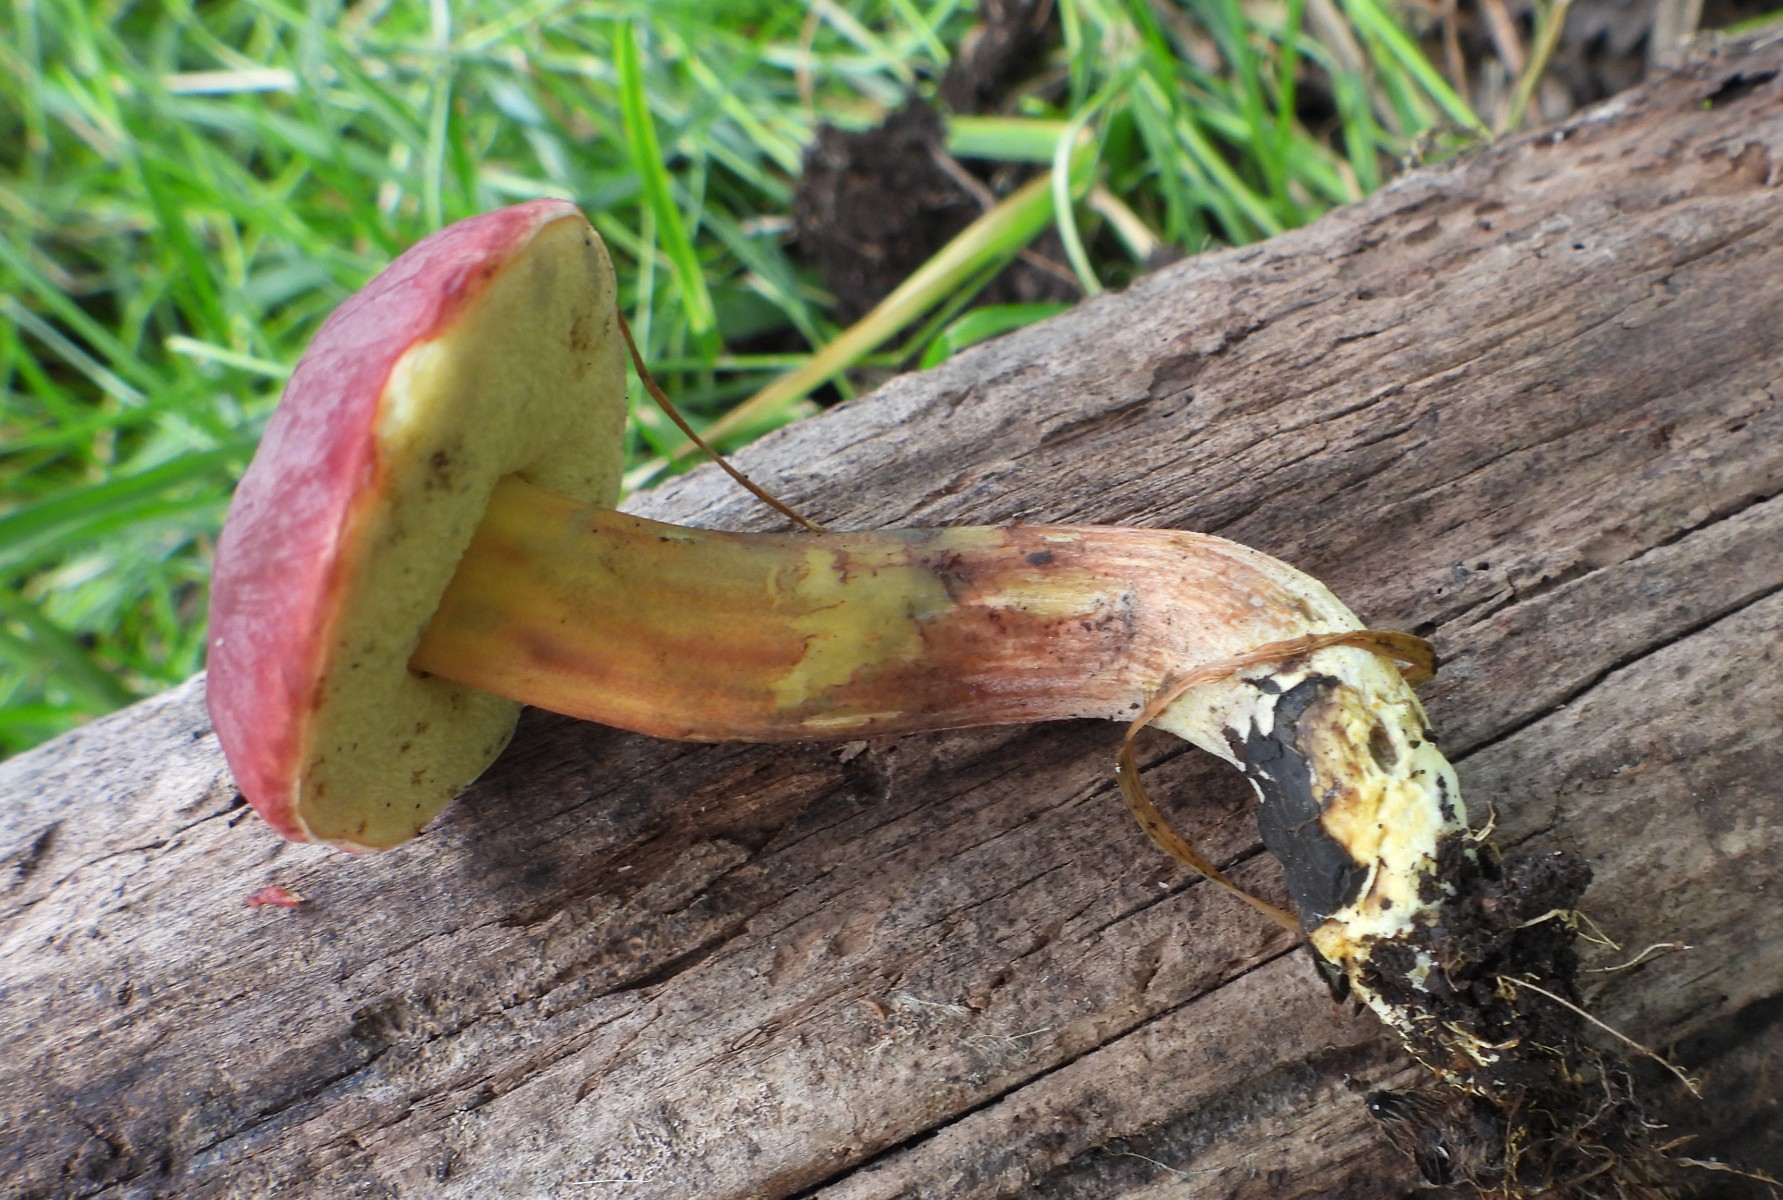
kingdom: Fungi
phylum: Basidiomycota
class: Agaricomycetes
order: Boletales
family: Boletaceae
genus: Hortiboletus
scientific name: Hortiboletus rubellus
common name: blodrød rørhat
